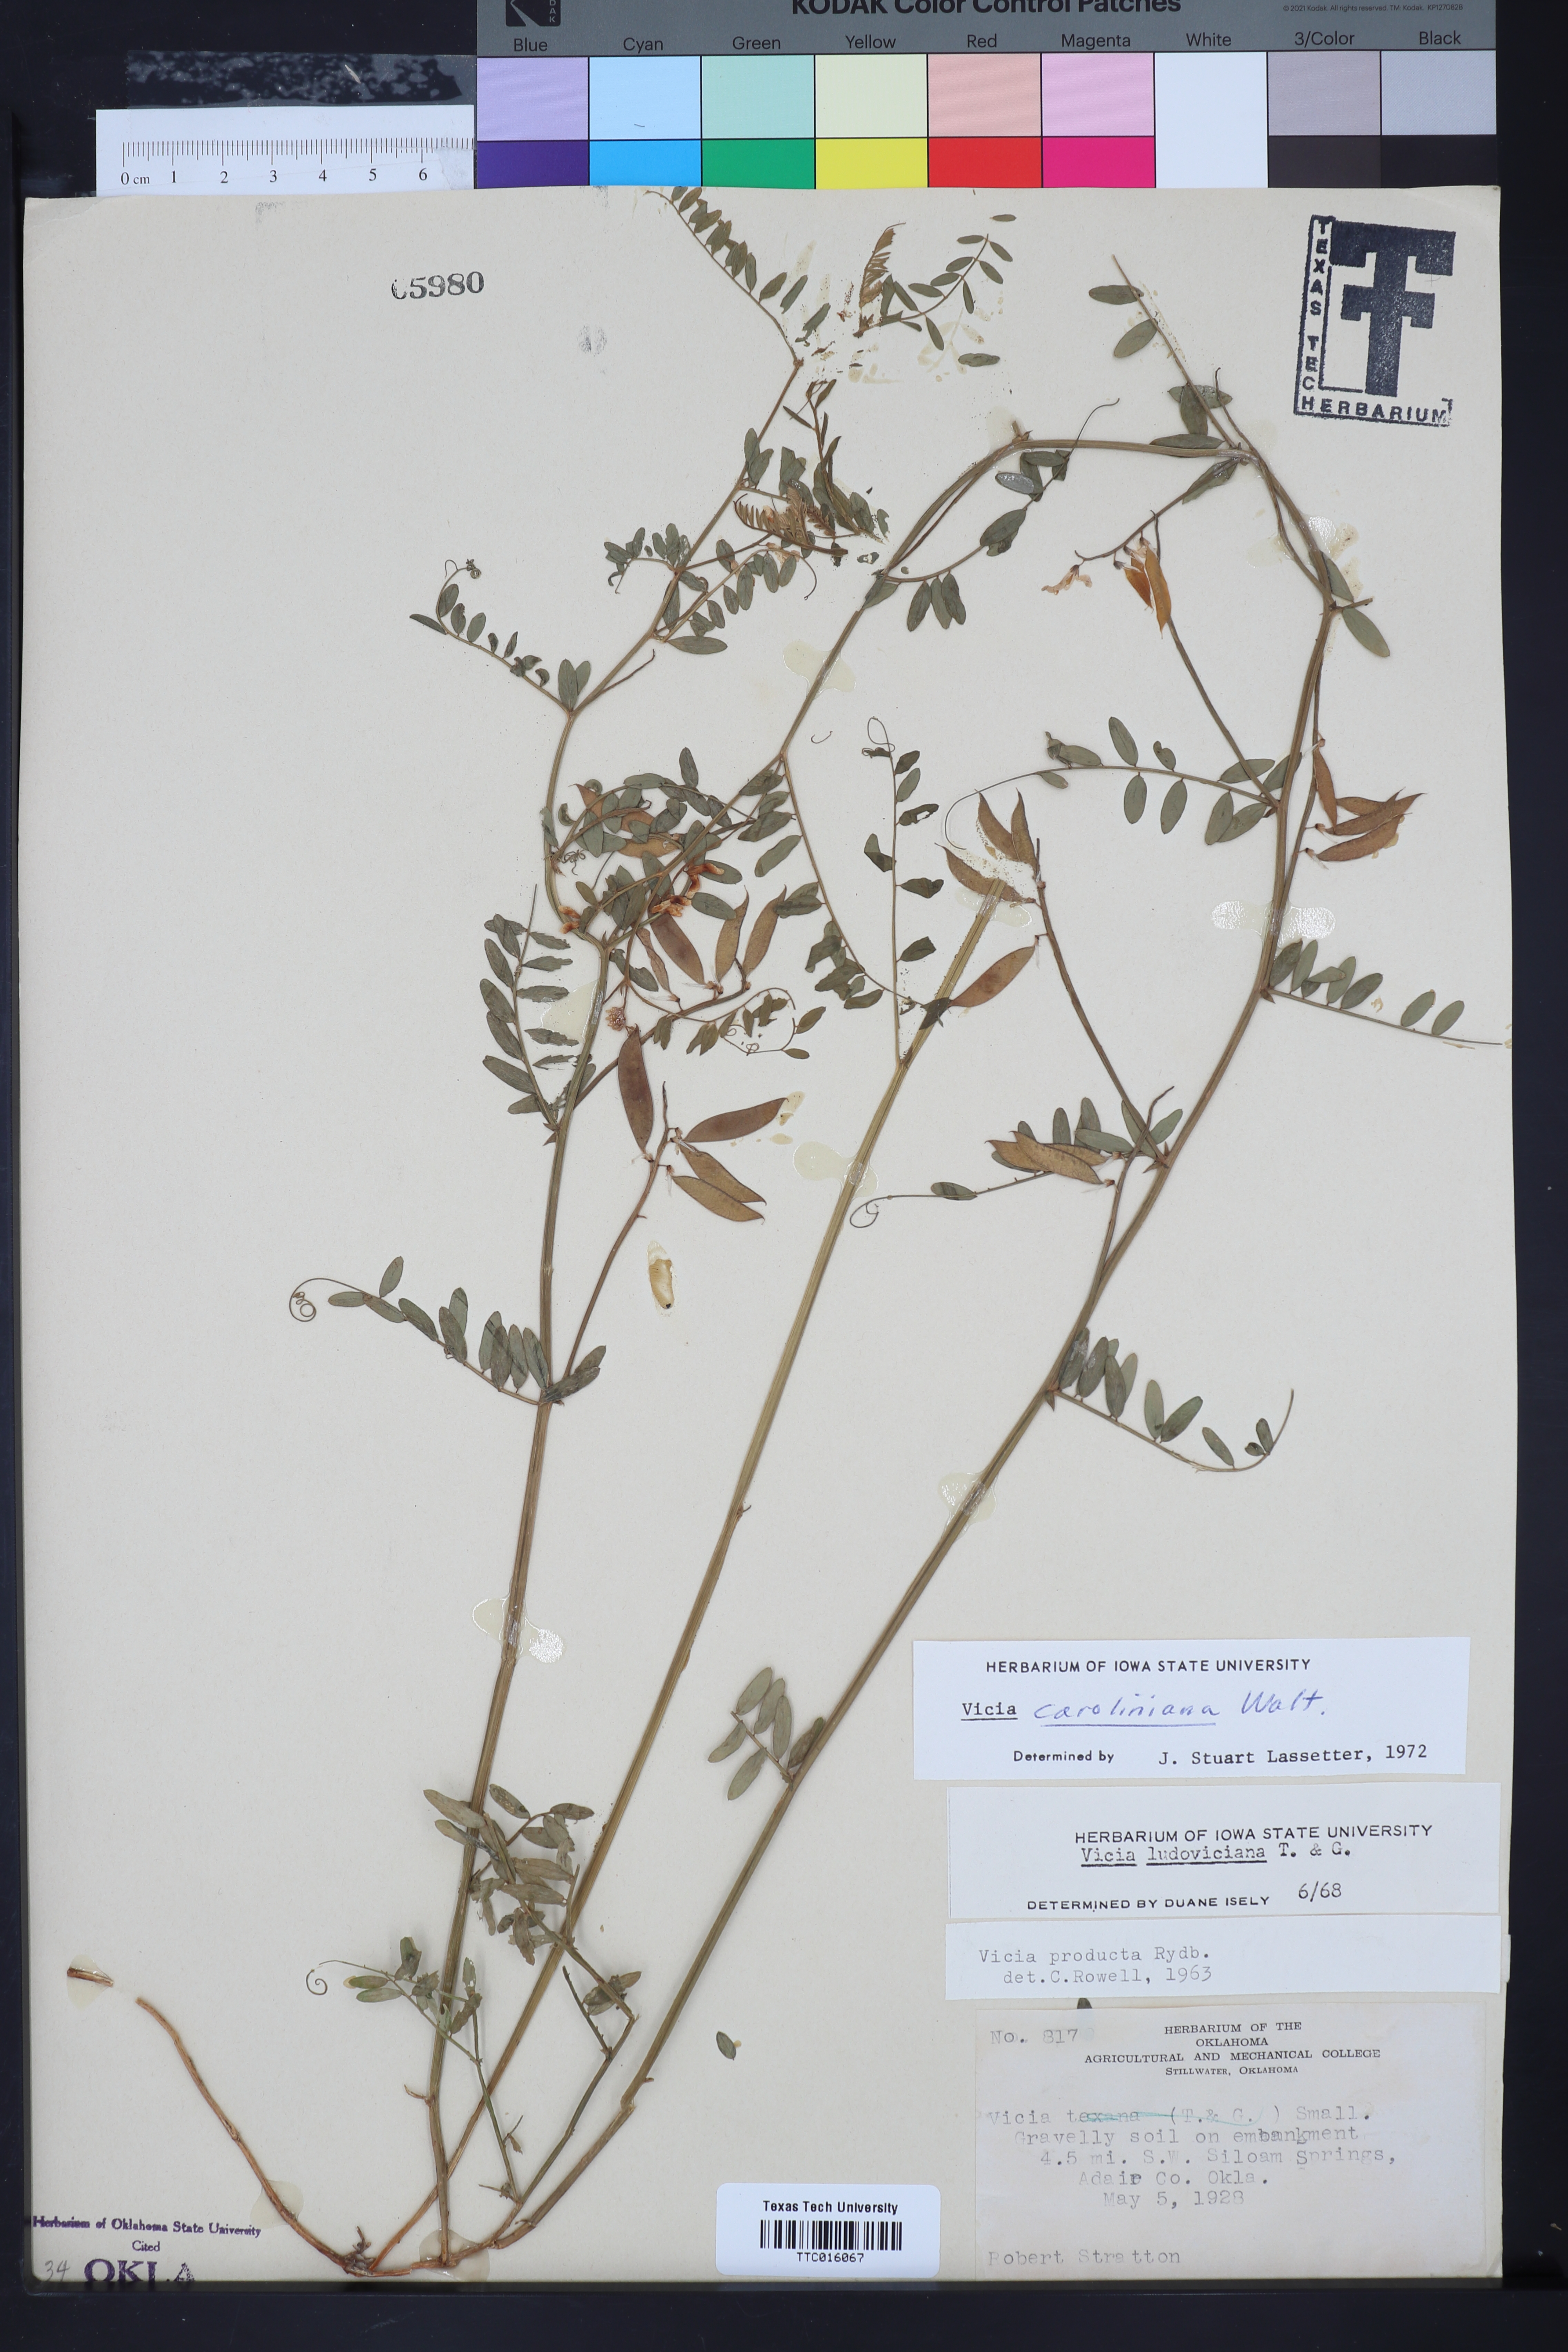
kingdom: Plantae
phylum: Tracheophyta
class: Magnoliopsida
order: Fabales
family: Fabaceae
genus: Vicia
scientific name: Vicia caroliniana
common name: Carolina vetch
